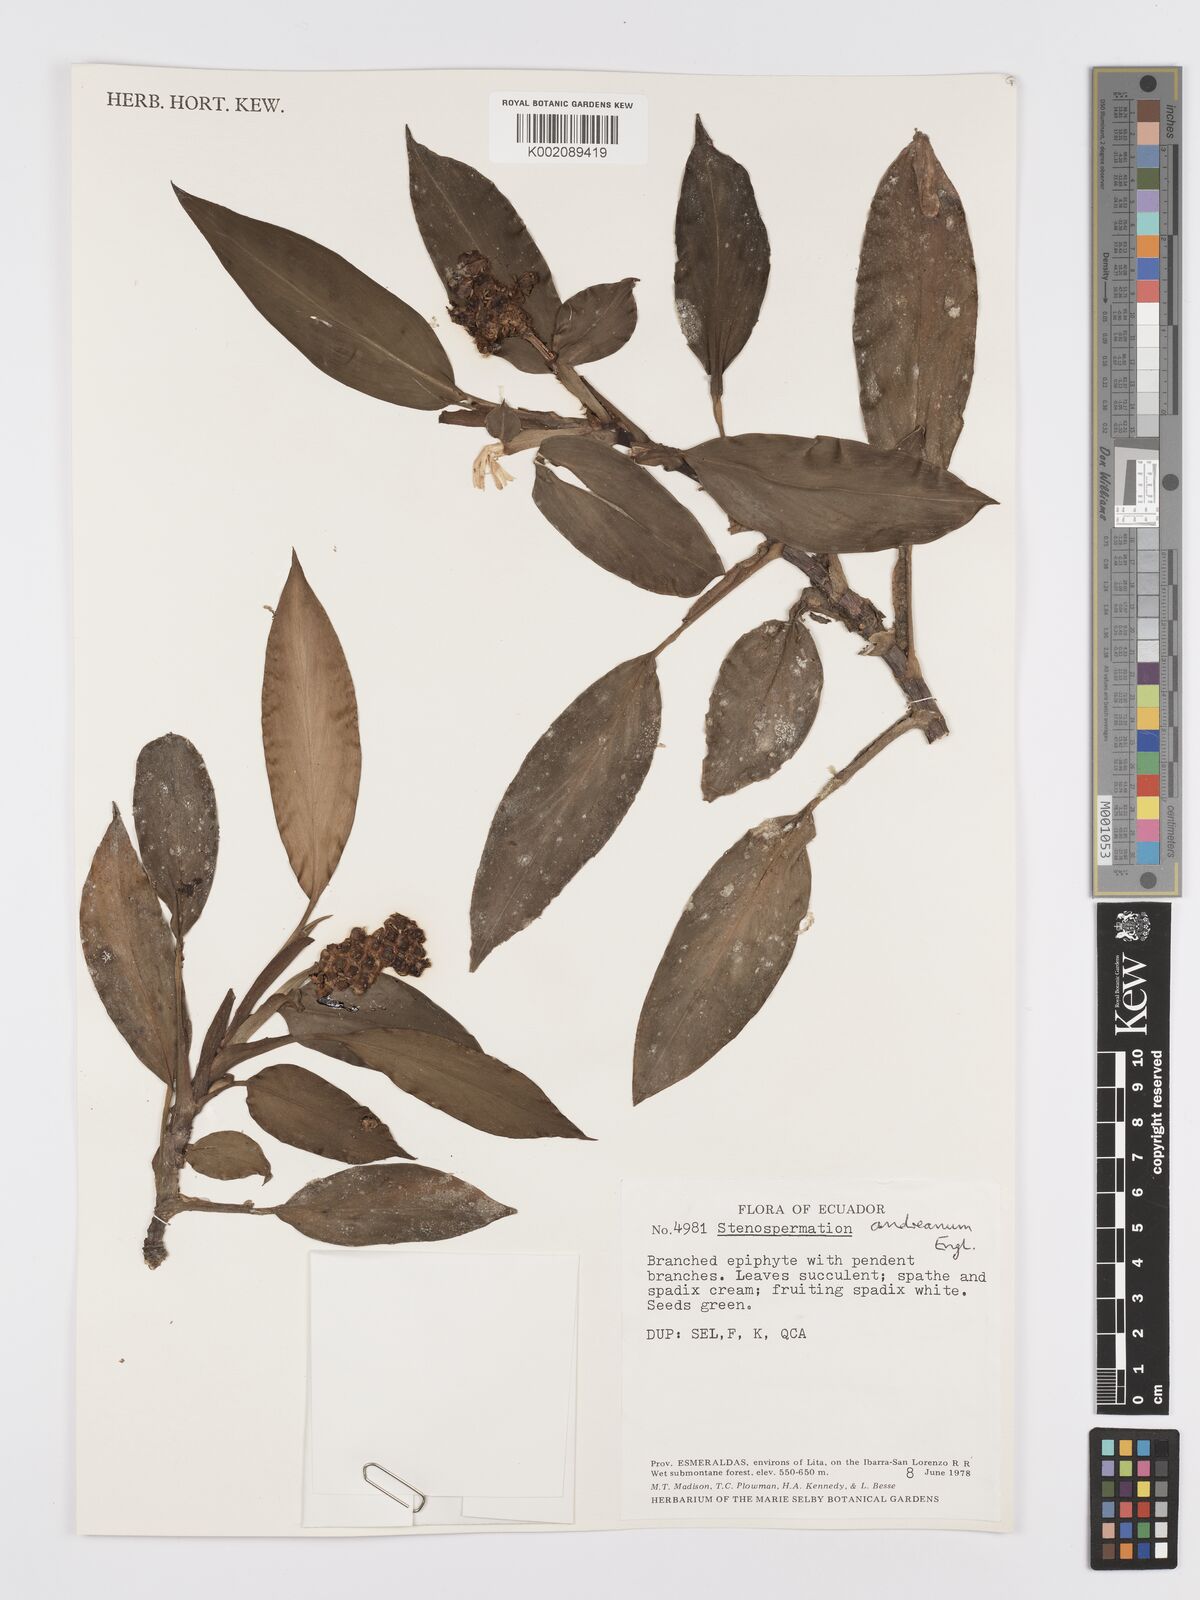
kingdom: Plantae
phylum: Tracheophyta
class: Liliopsida
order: Alismatales
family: Araceae
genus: Stenospermation
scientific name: Stenospermation andreanum
